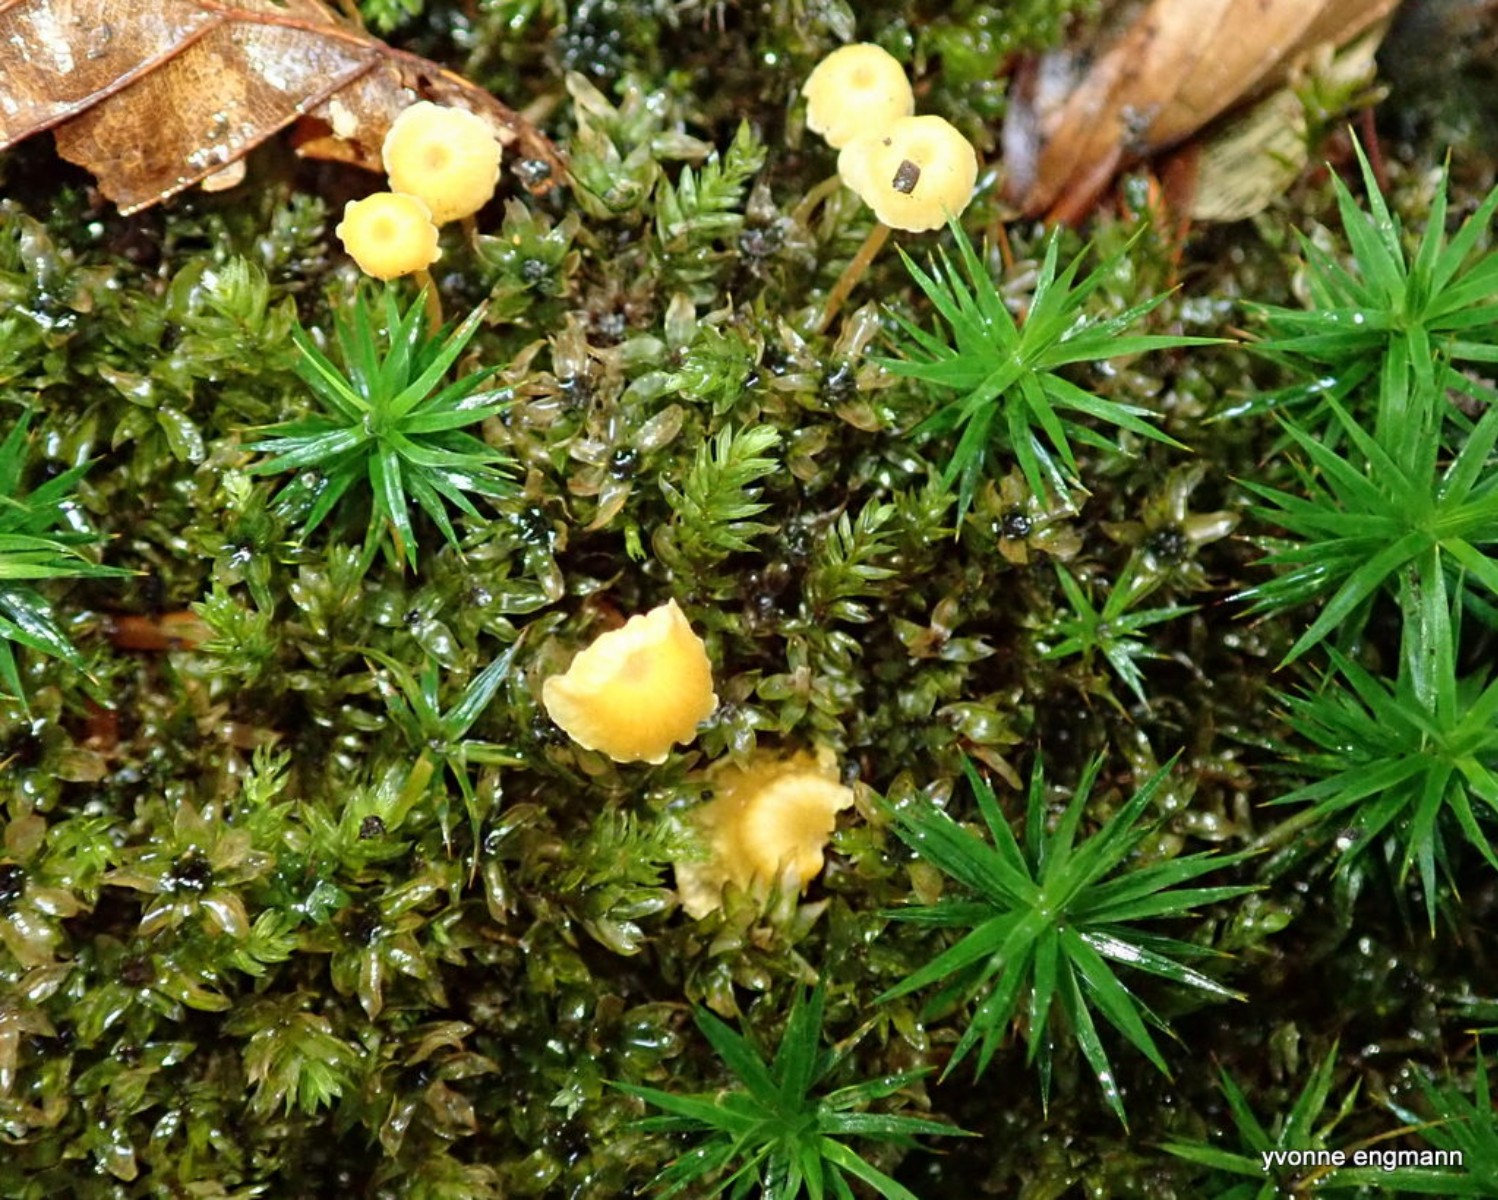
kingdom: Fungi
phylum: Basidiomycota
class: Agaricomycetes
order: Hymenochaetales
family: Rickenellaceae
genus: Rickenella
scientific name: Rickenella fibula
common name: orange mosnavlehat
